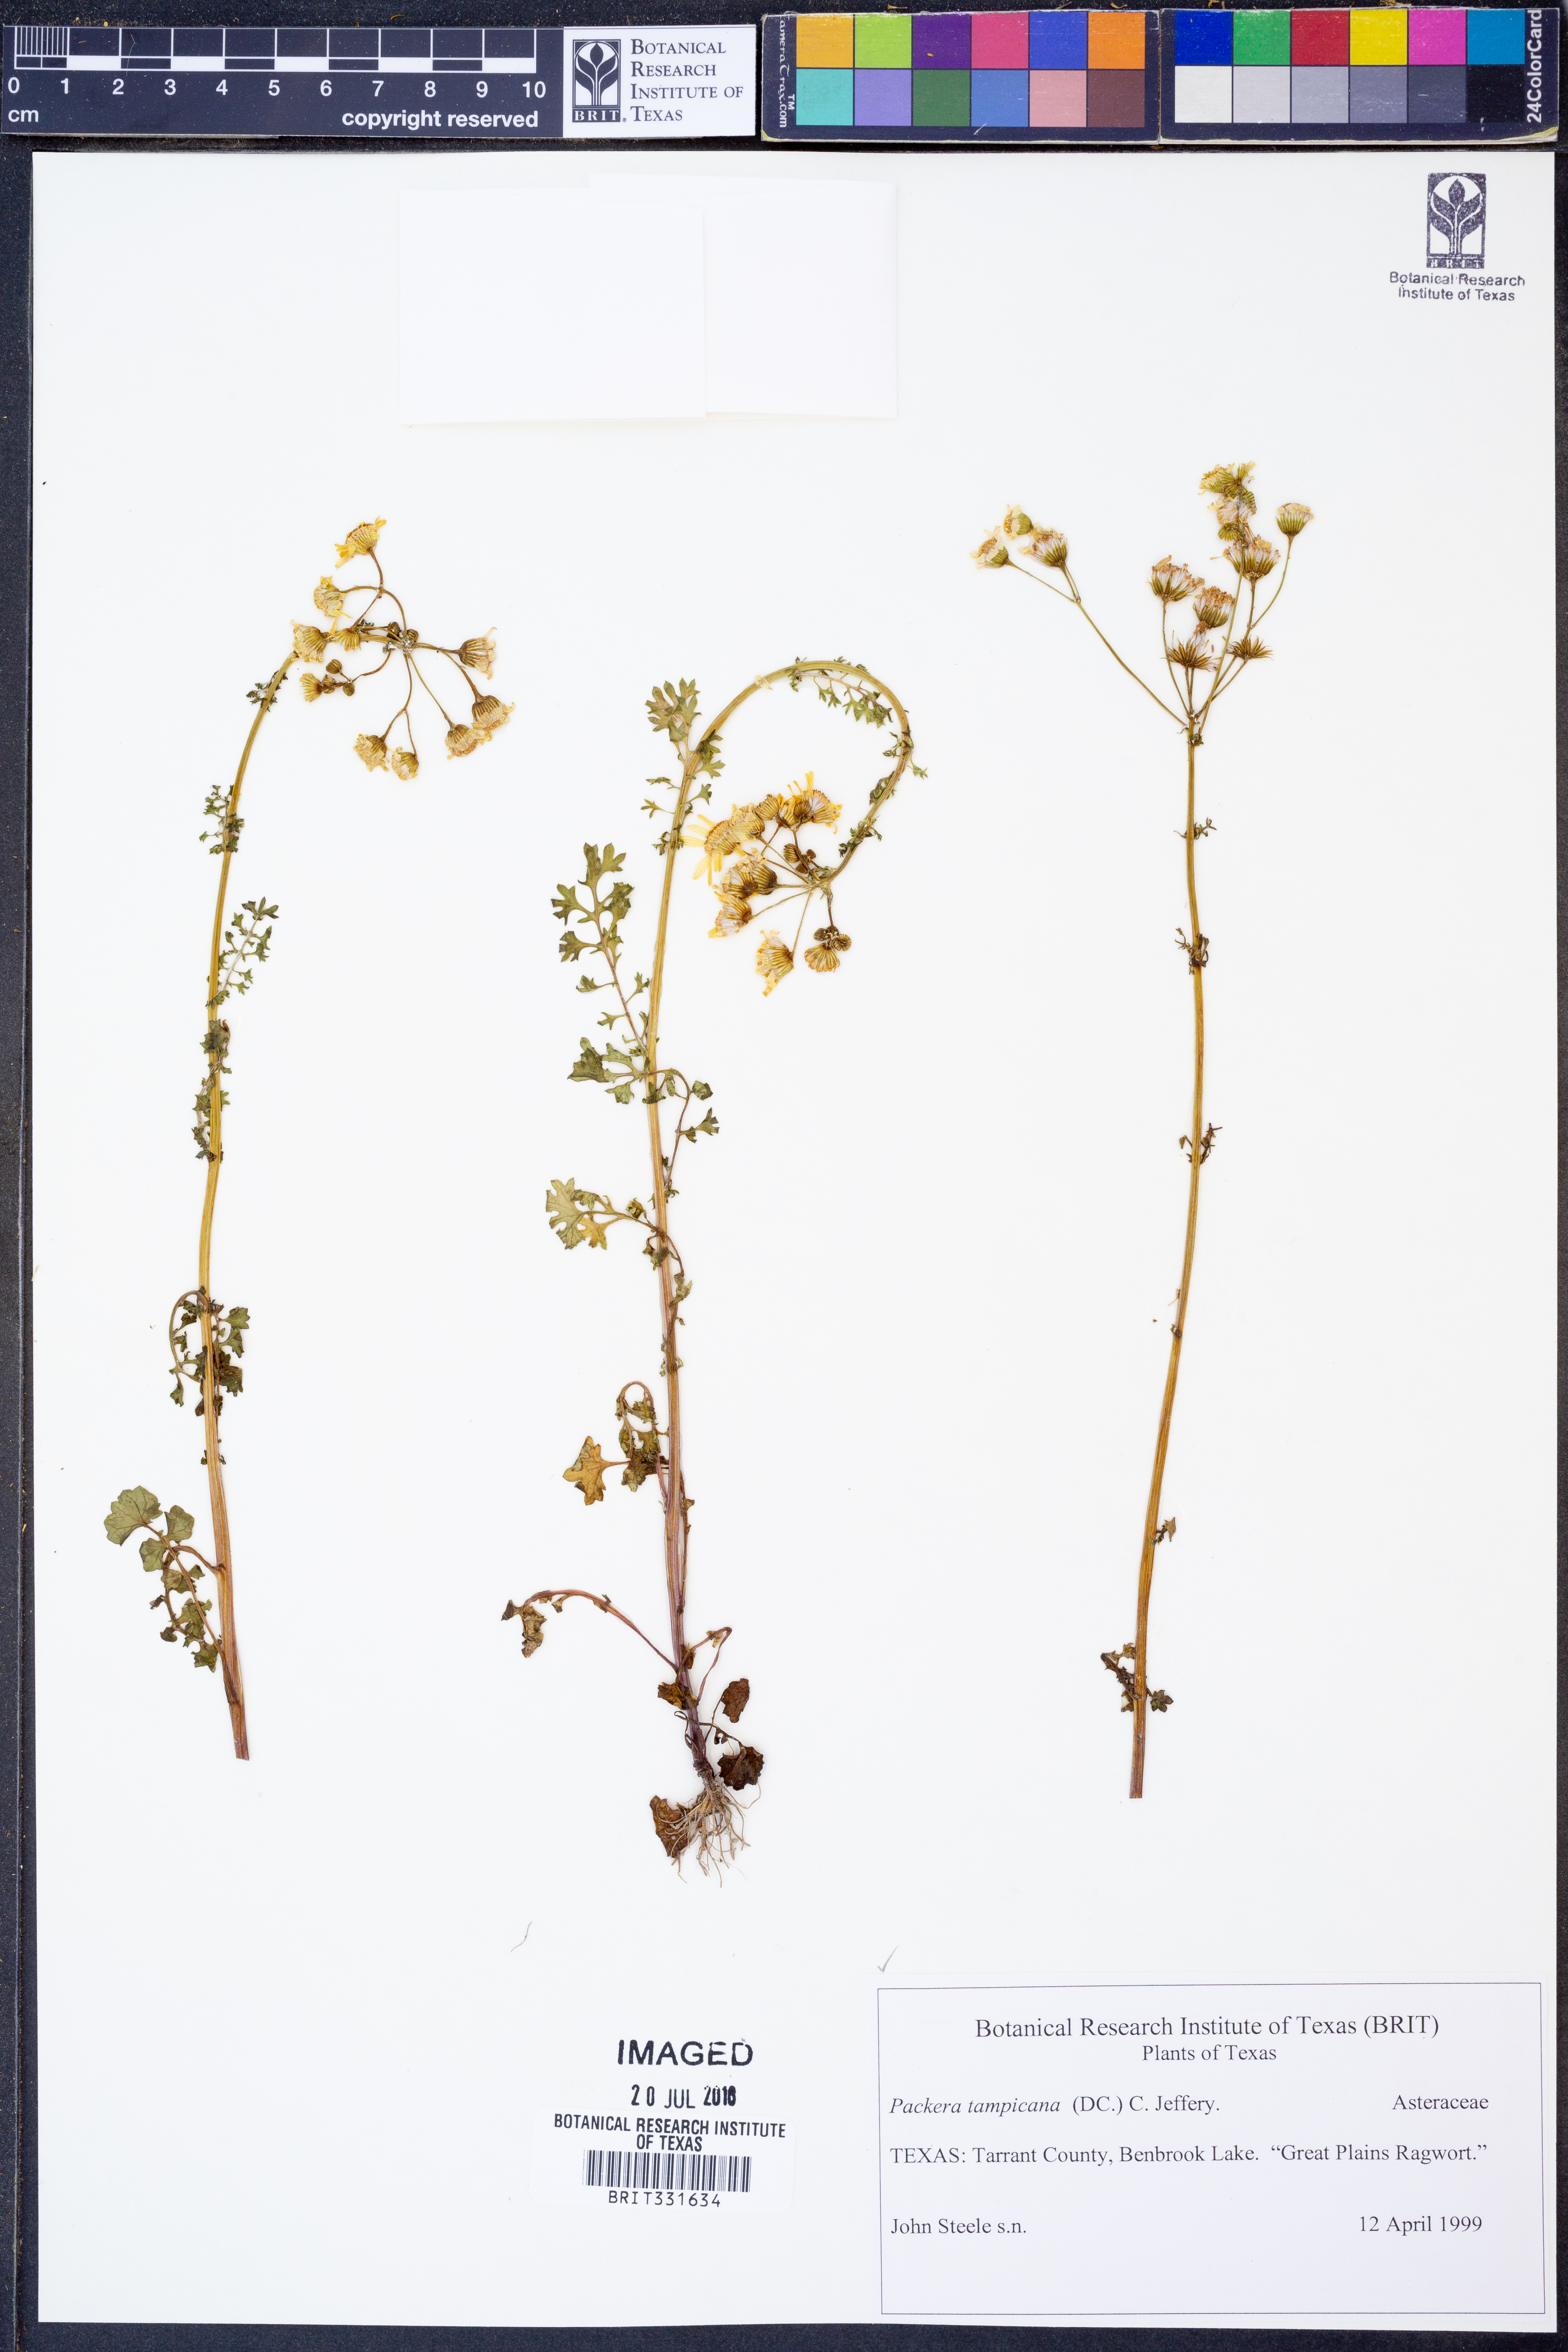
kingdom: Plantae
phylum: Tracheophyta
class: Magnoliopsida
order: Asterales
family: Asteraceae
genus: Packera
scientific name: Packera tampicana
